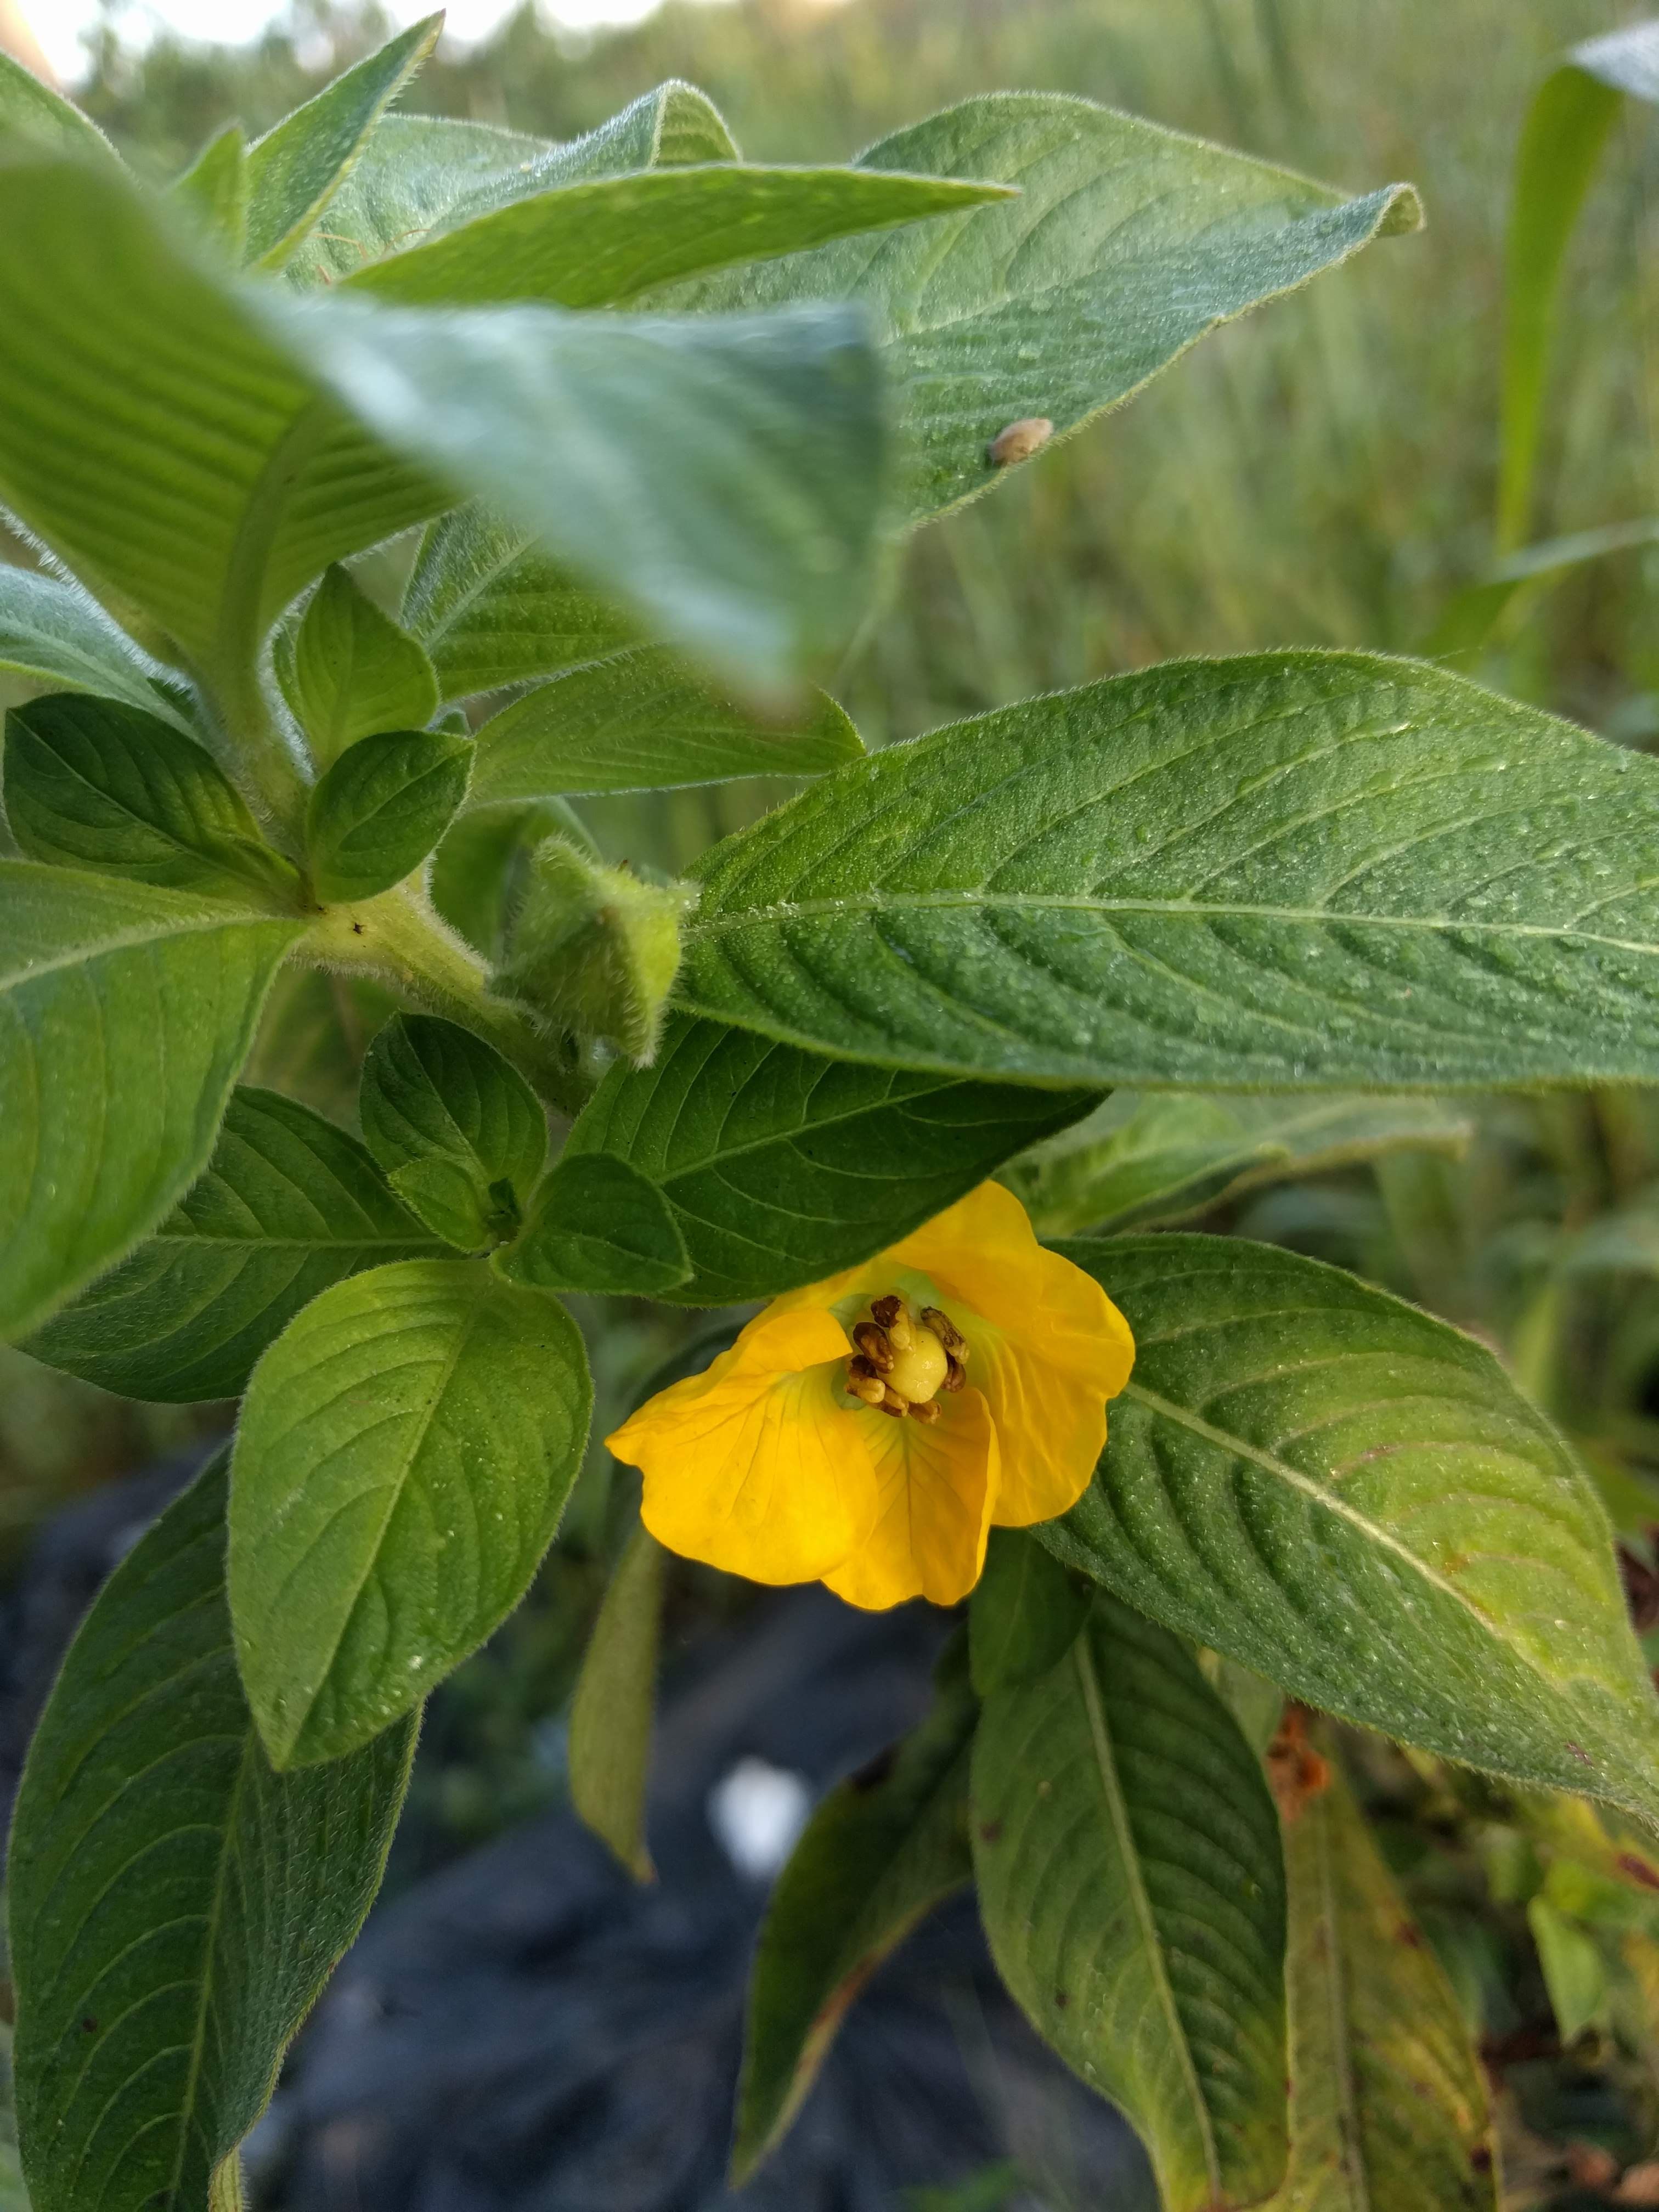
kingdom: Plantae
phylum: Tracheophyta
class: Magnoliopsida
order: Myrtales
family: Onagraceae
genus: Ludwigia
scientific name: Ludwigia peruviana
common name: Peruvian primrose-willow
